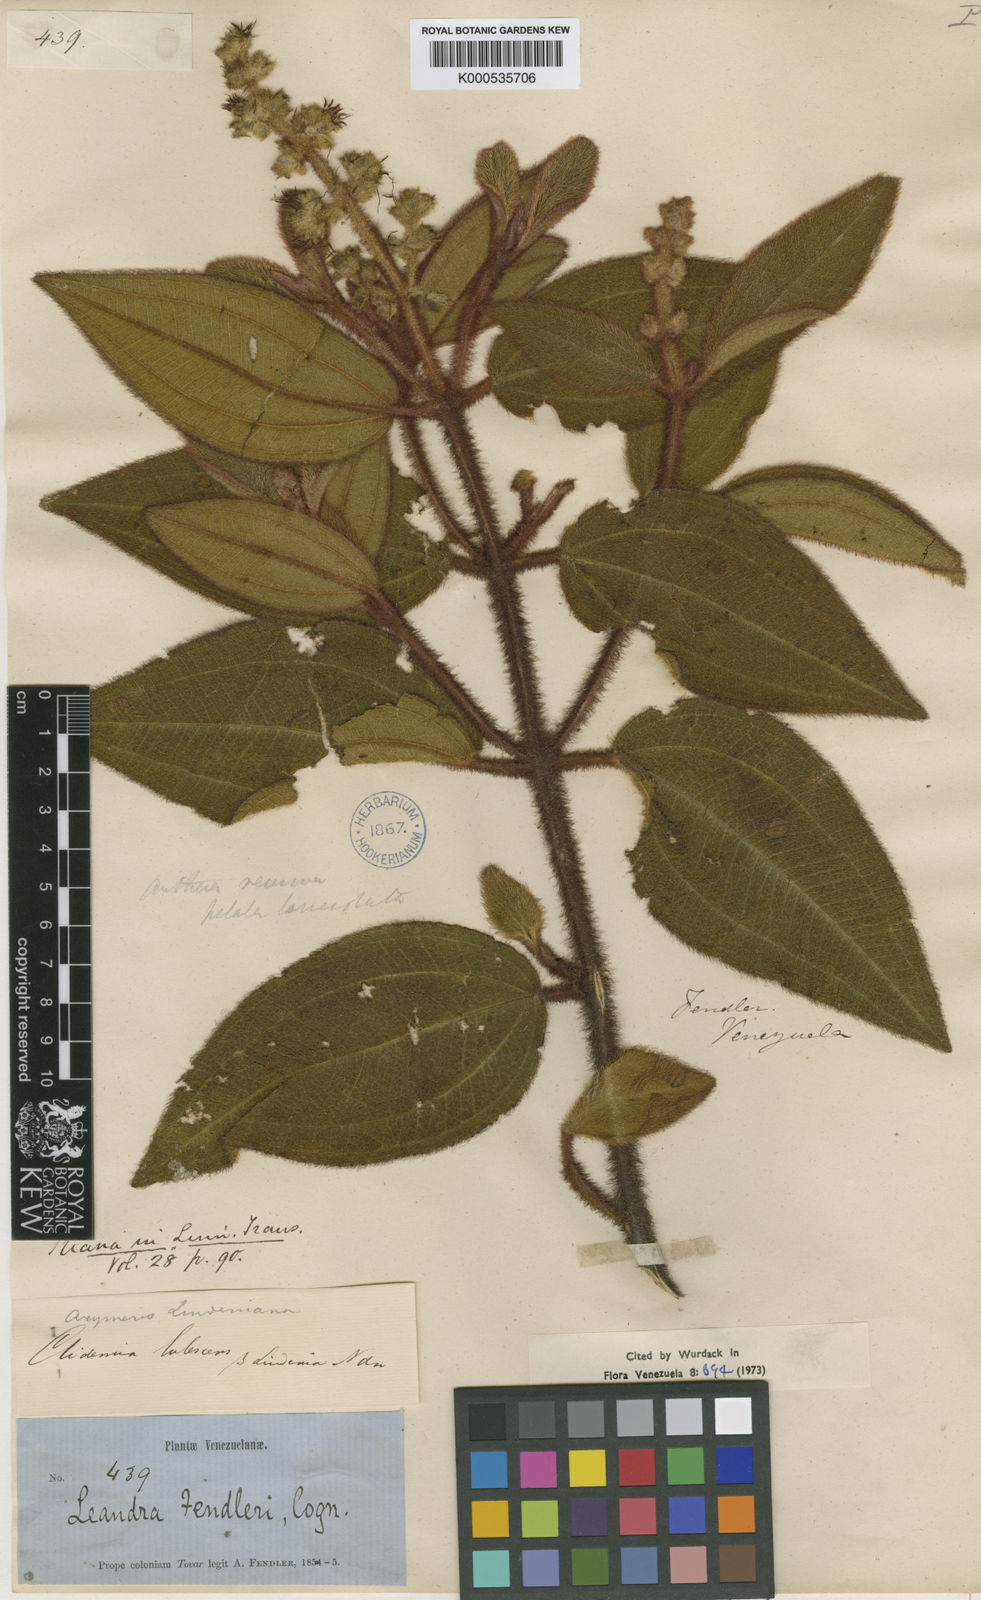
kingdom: Plantae
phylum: Tracheophyta
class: Magnoliopsida
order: Myrtales
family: Melastomataceae
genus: Miconia
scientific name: Miconia lealindeniana
